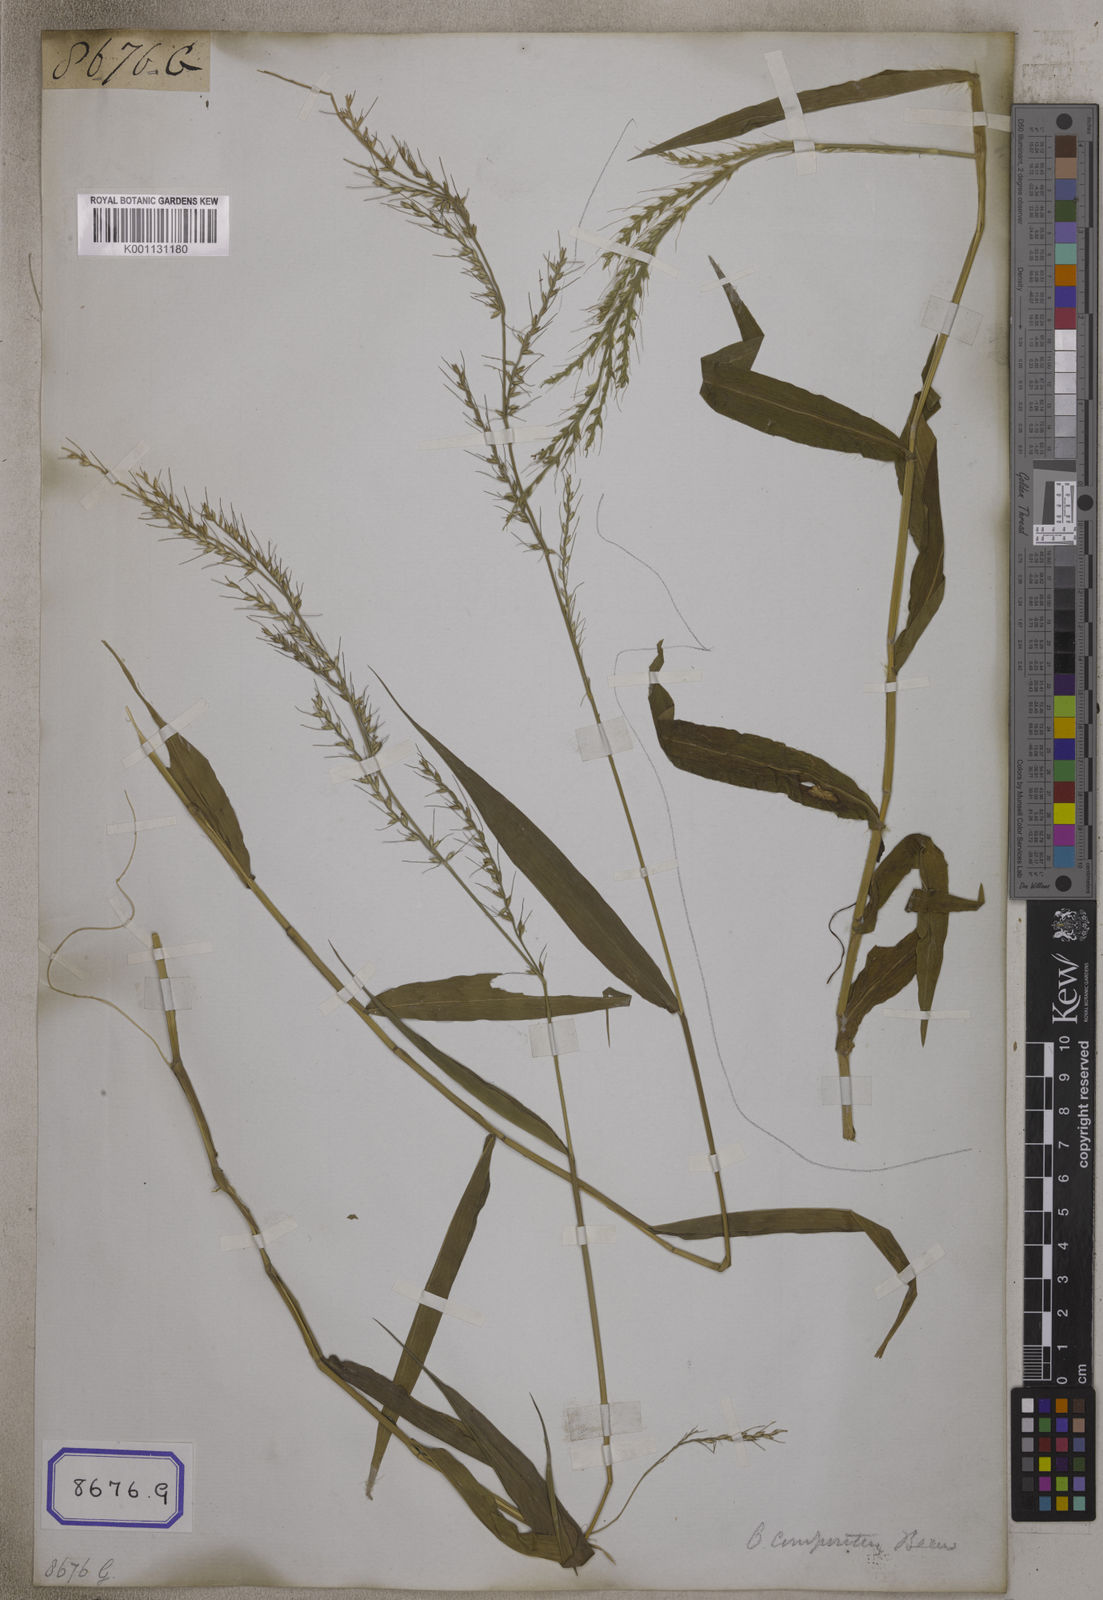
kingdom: Plantae
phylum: Tracheophyta
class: Liliopsida
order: Poales
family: Poaceae
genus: Oplismenus
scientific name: Oplismenus compositus
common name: Running mountain grass
